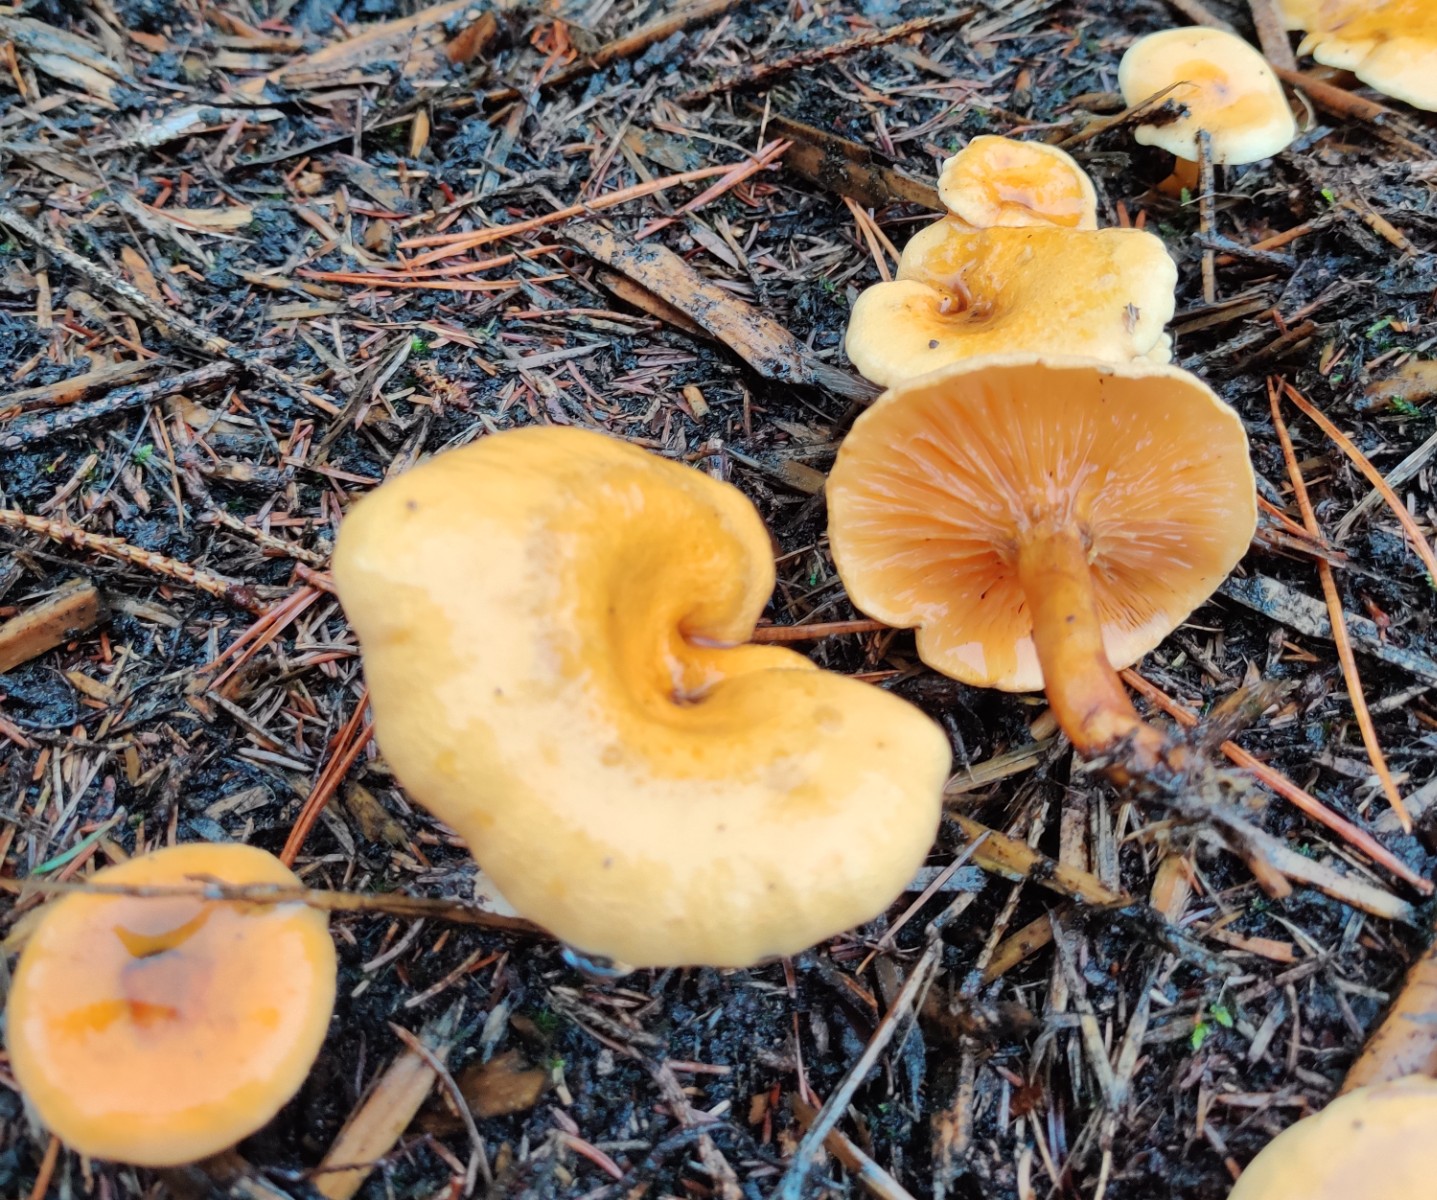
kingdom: Fungi
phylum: Basidiomycota
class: Agaricomycetes
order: Boletales
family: Hygrophoropsidaceae
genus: Hygrophoropsis
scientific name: Hygrophoropsis aurantiaca
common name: almindelig orangekantarel
